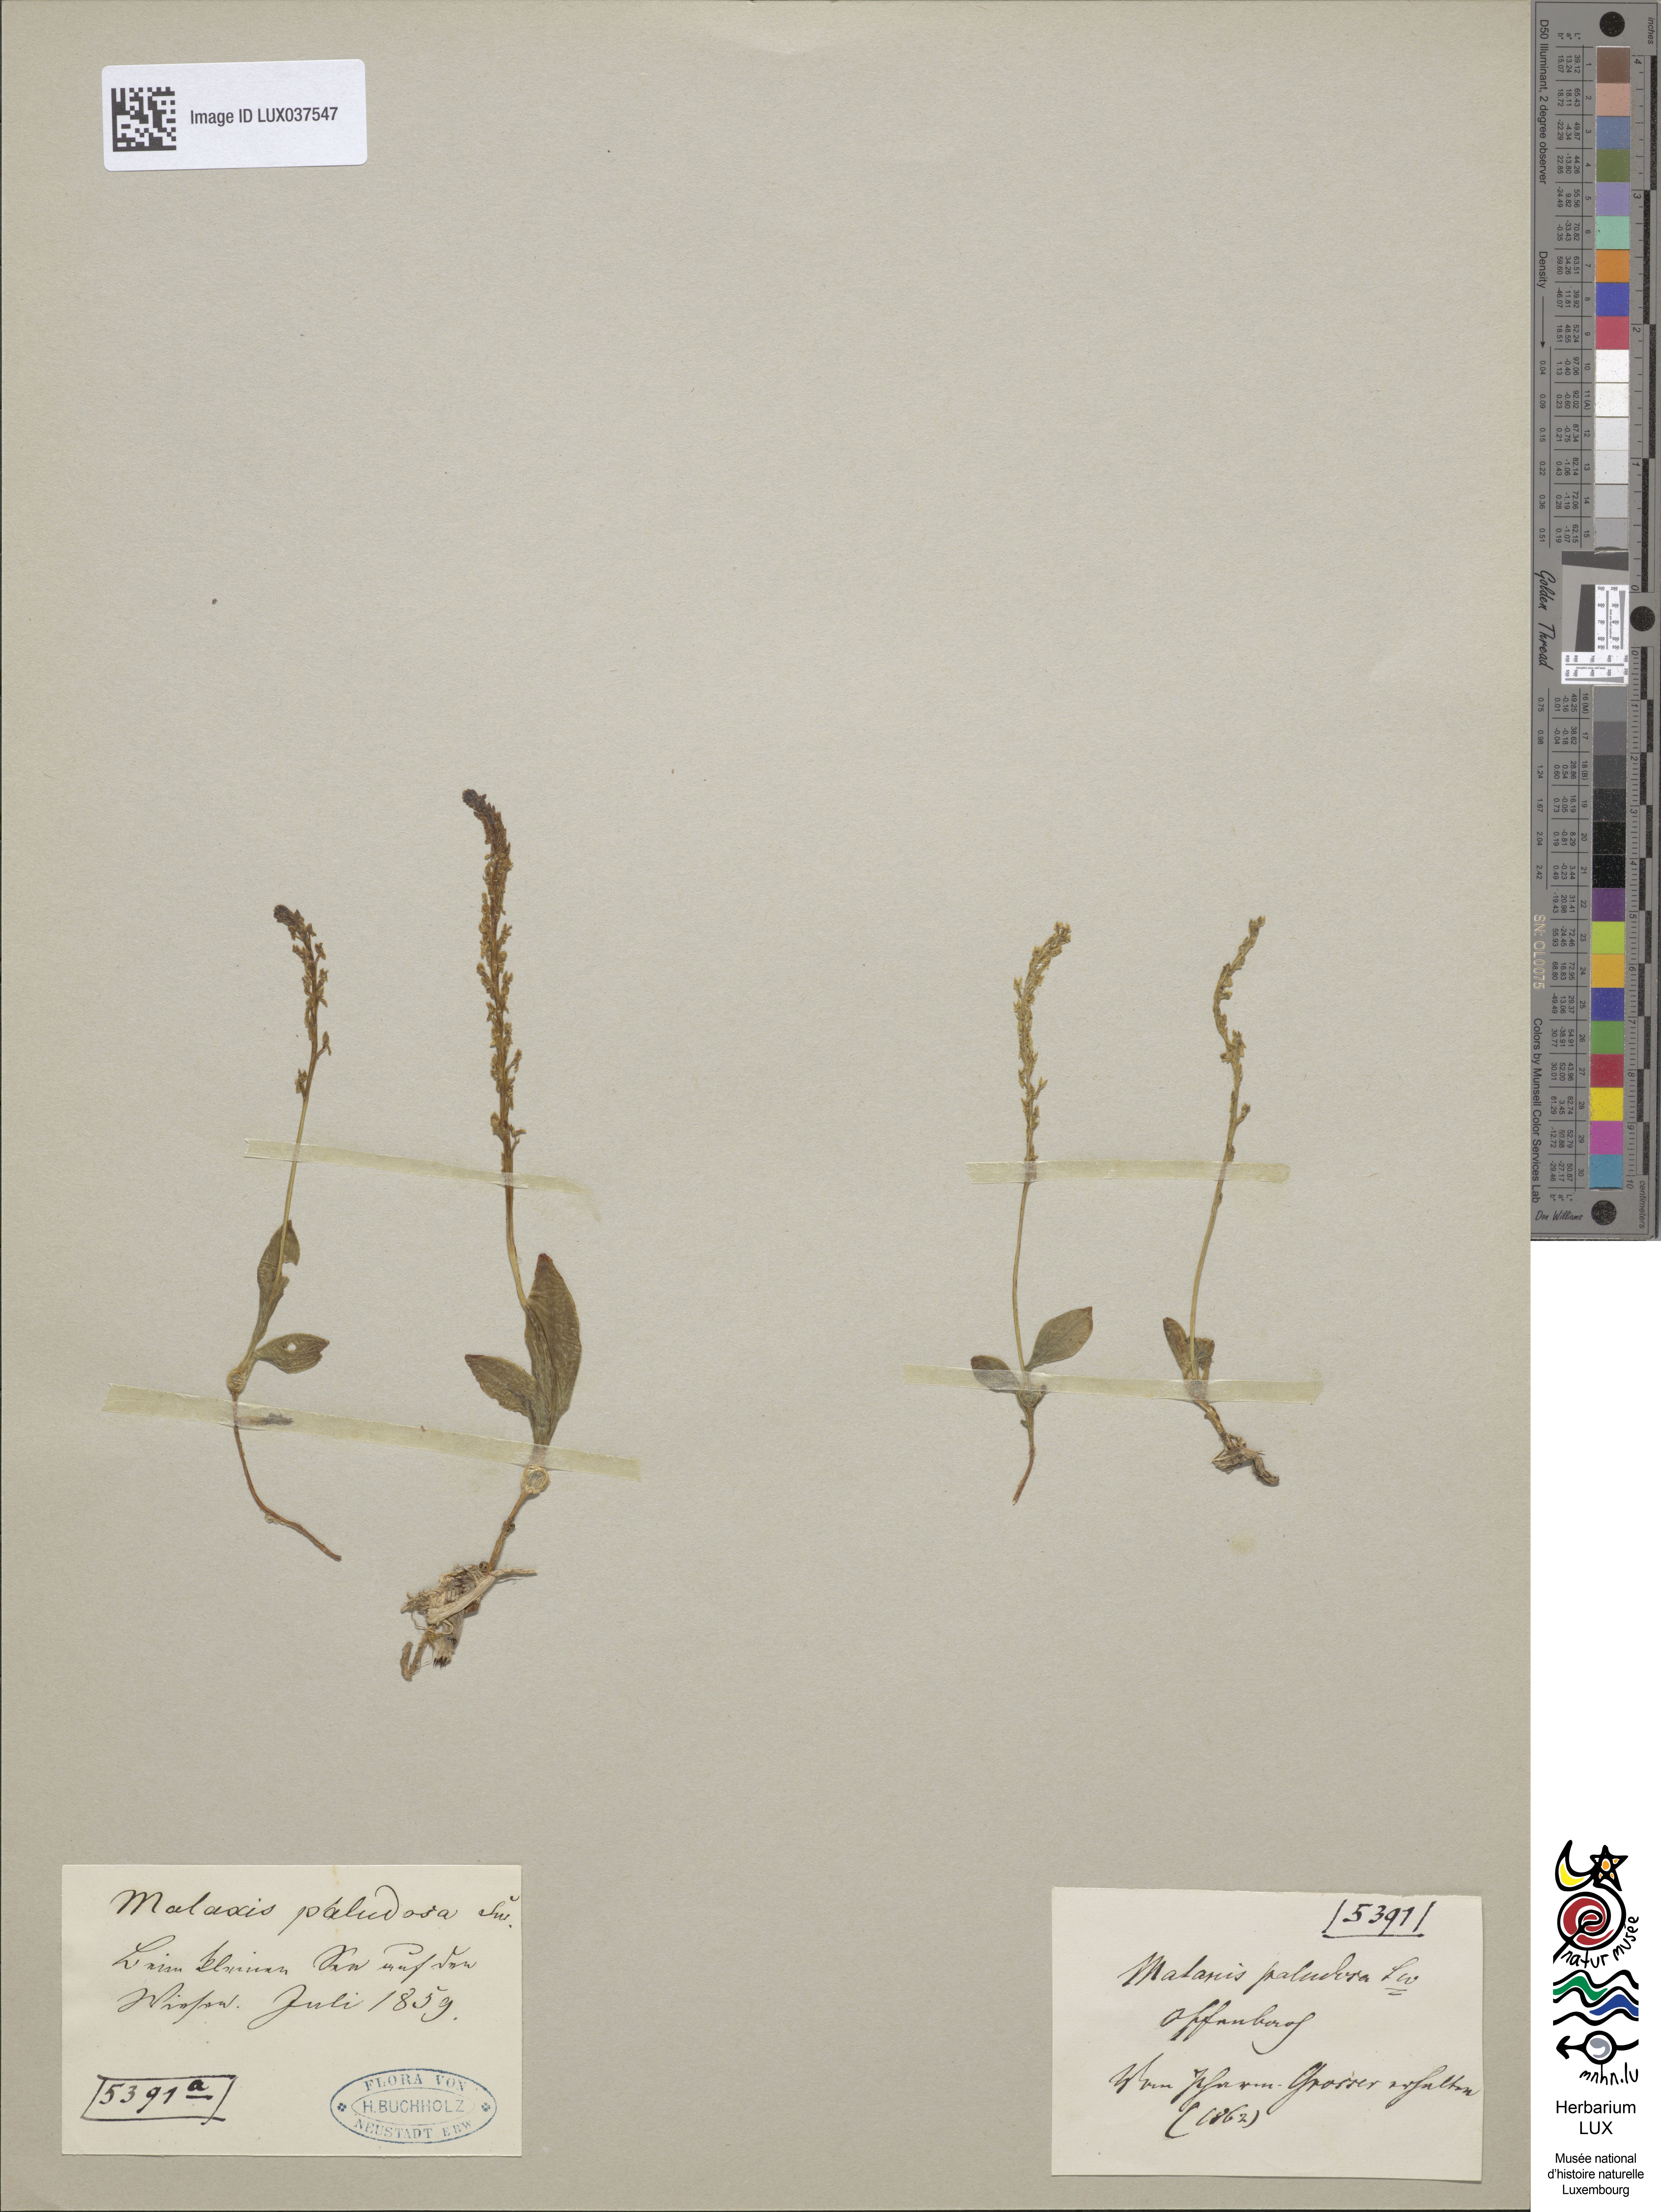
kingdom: Plantae
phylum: Tracheophyta
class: Liliopsida
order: Asparagales
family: Orchidaceae
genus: Hammarbya
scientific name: Hammarbya paludosa
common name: Bog orchid
